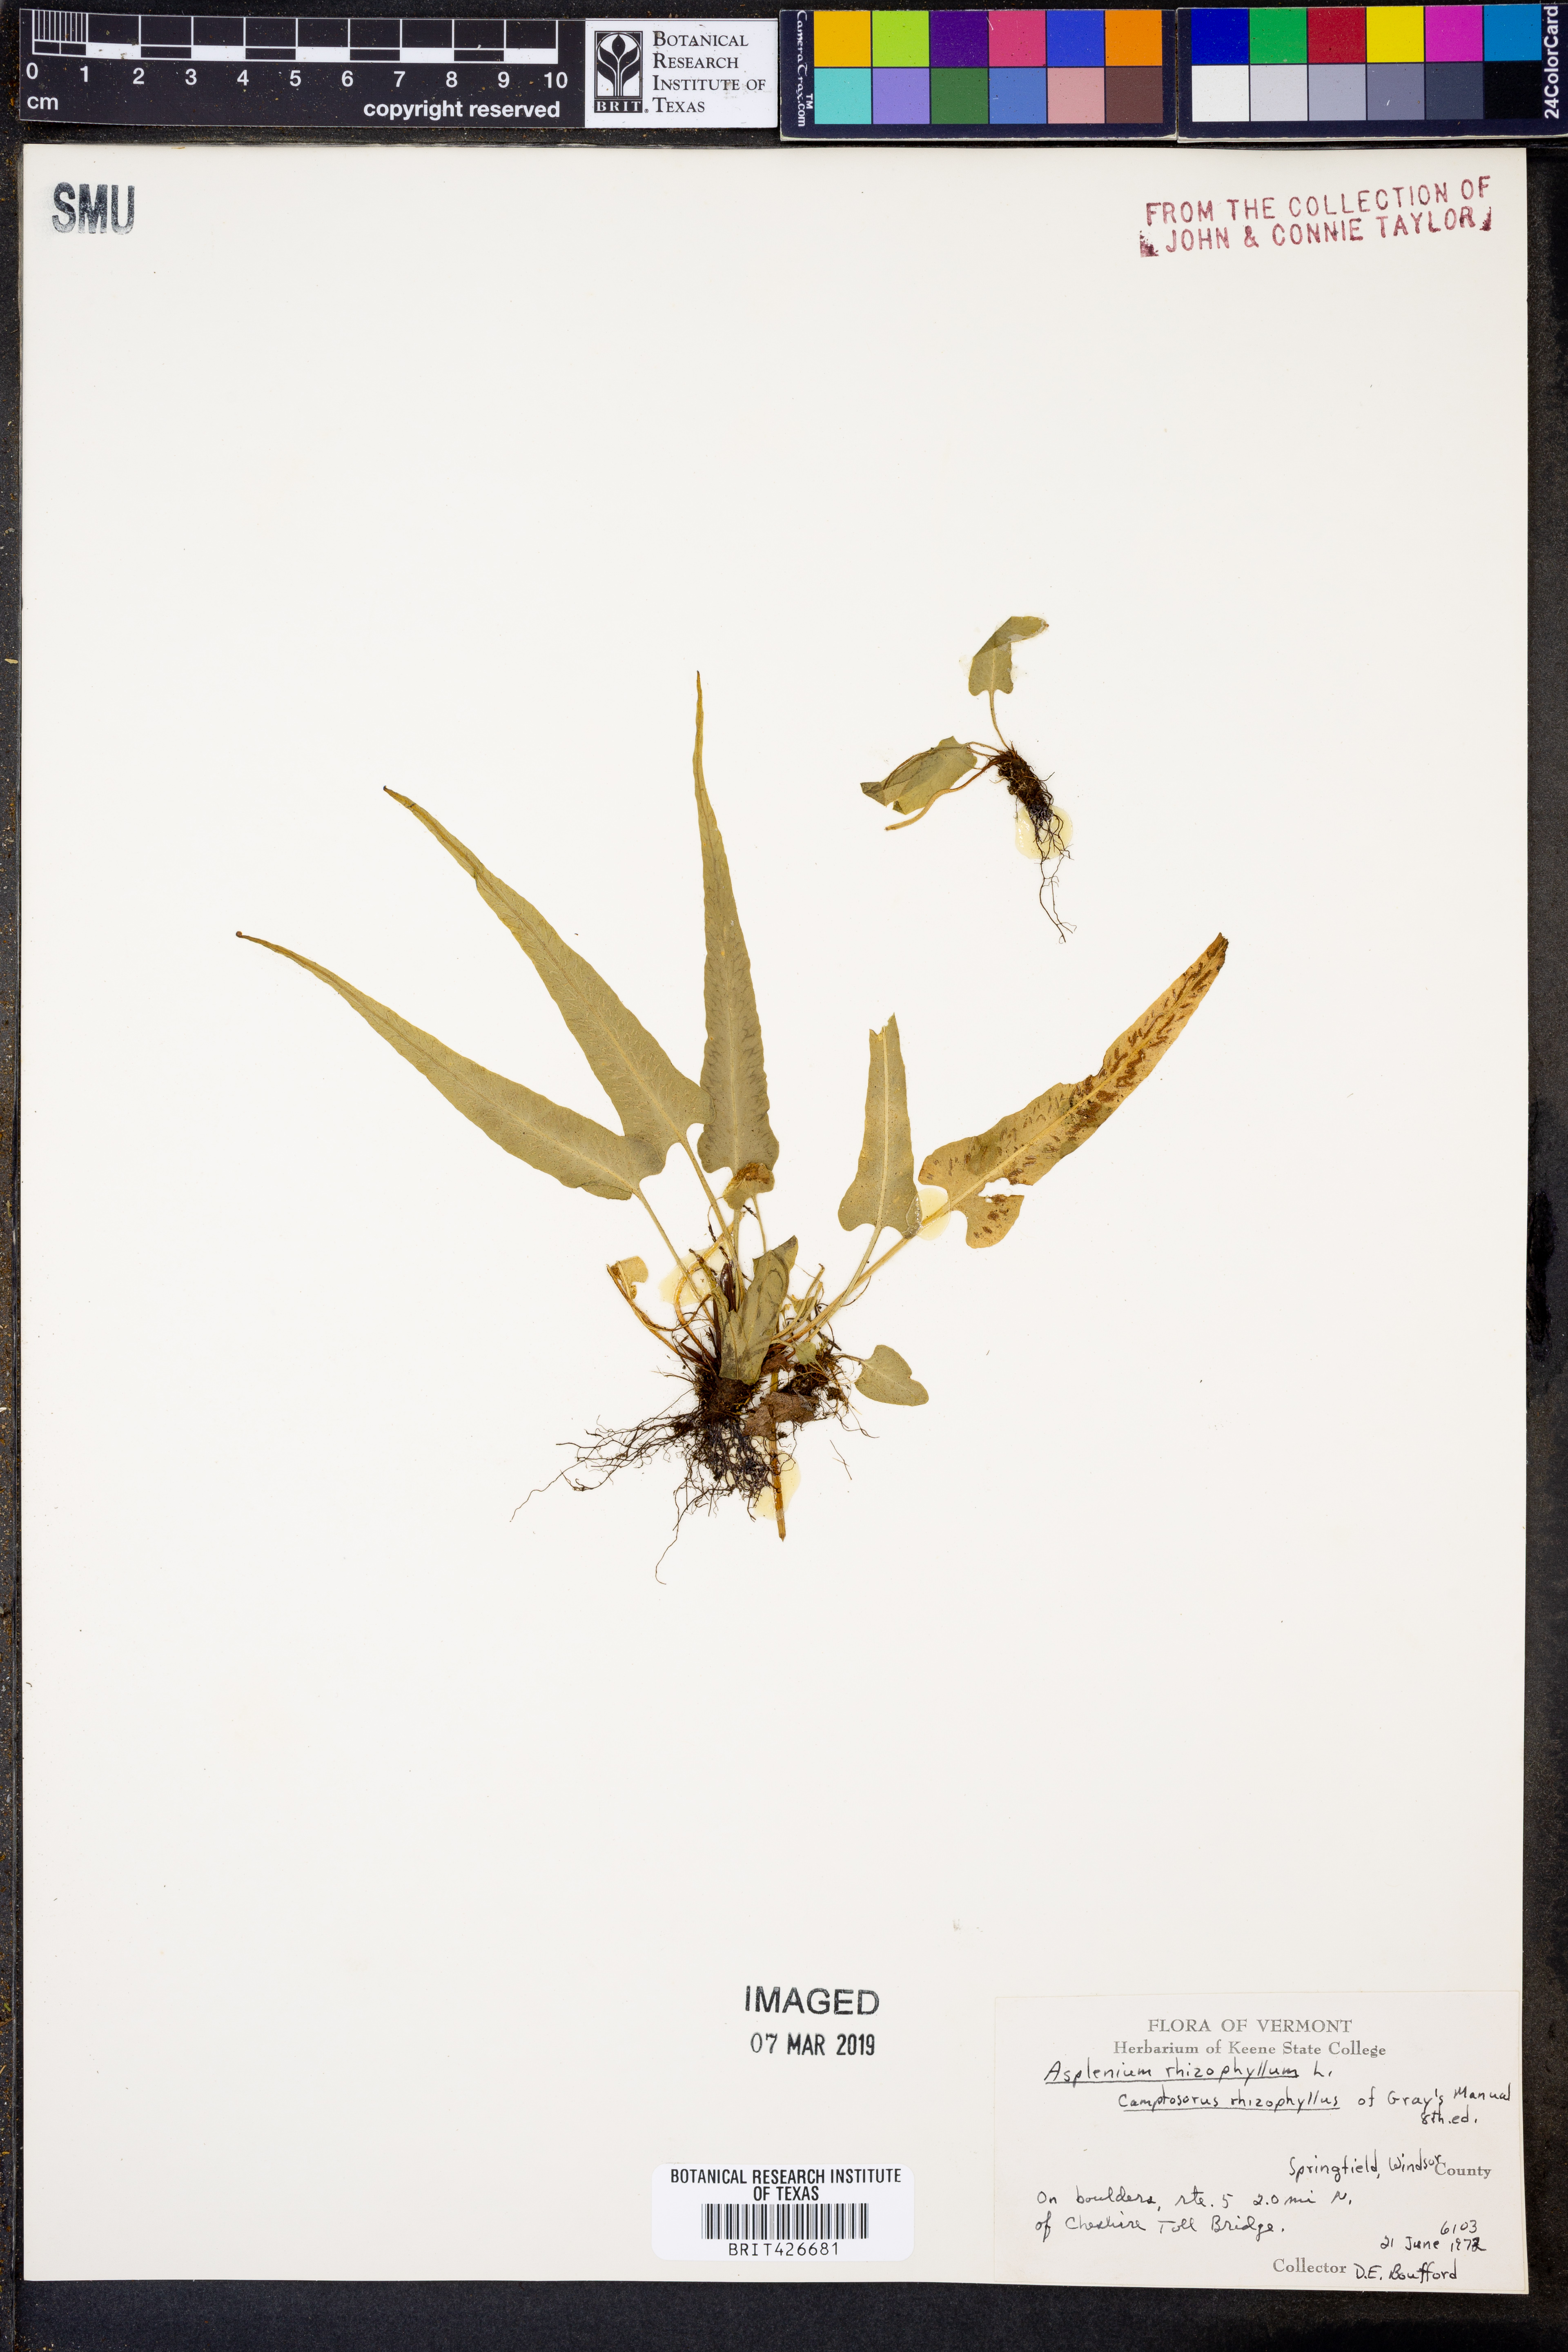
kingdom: Plantae
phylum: Tracheophyta
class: Polypodiopsida
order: Polypodiales
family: Aspleniaceae
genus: Asplenium
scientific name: Asplenium rhizophyllum
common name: Walking fern
